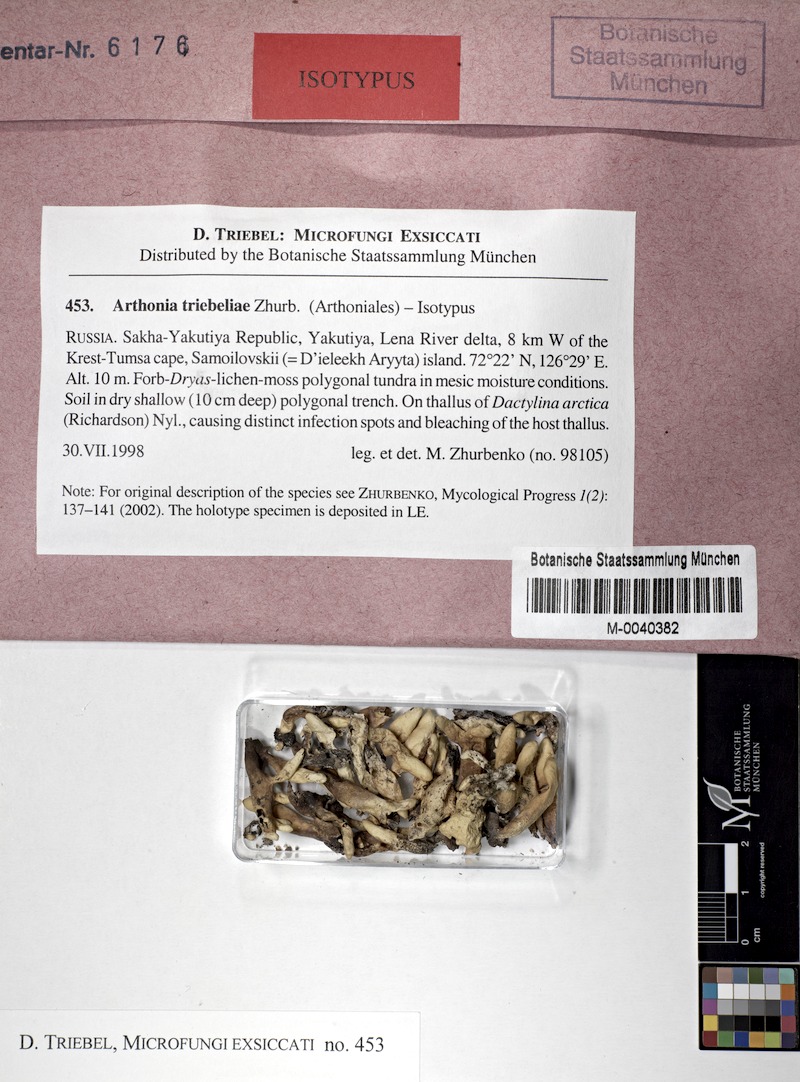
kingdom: Fungi
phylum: Ascomycota
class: Arthoniomycetes
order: Arthoniales
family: Arthoniaceae
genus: Arthonia
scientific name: Arthonia triebeliae
